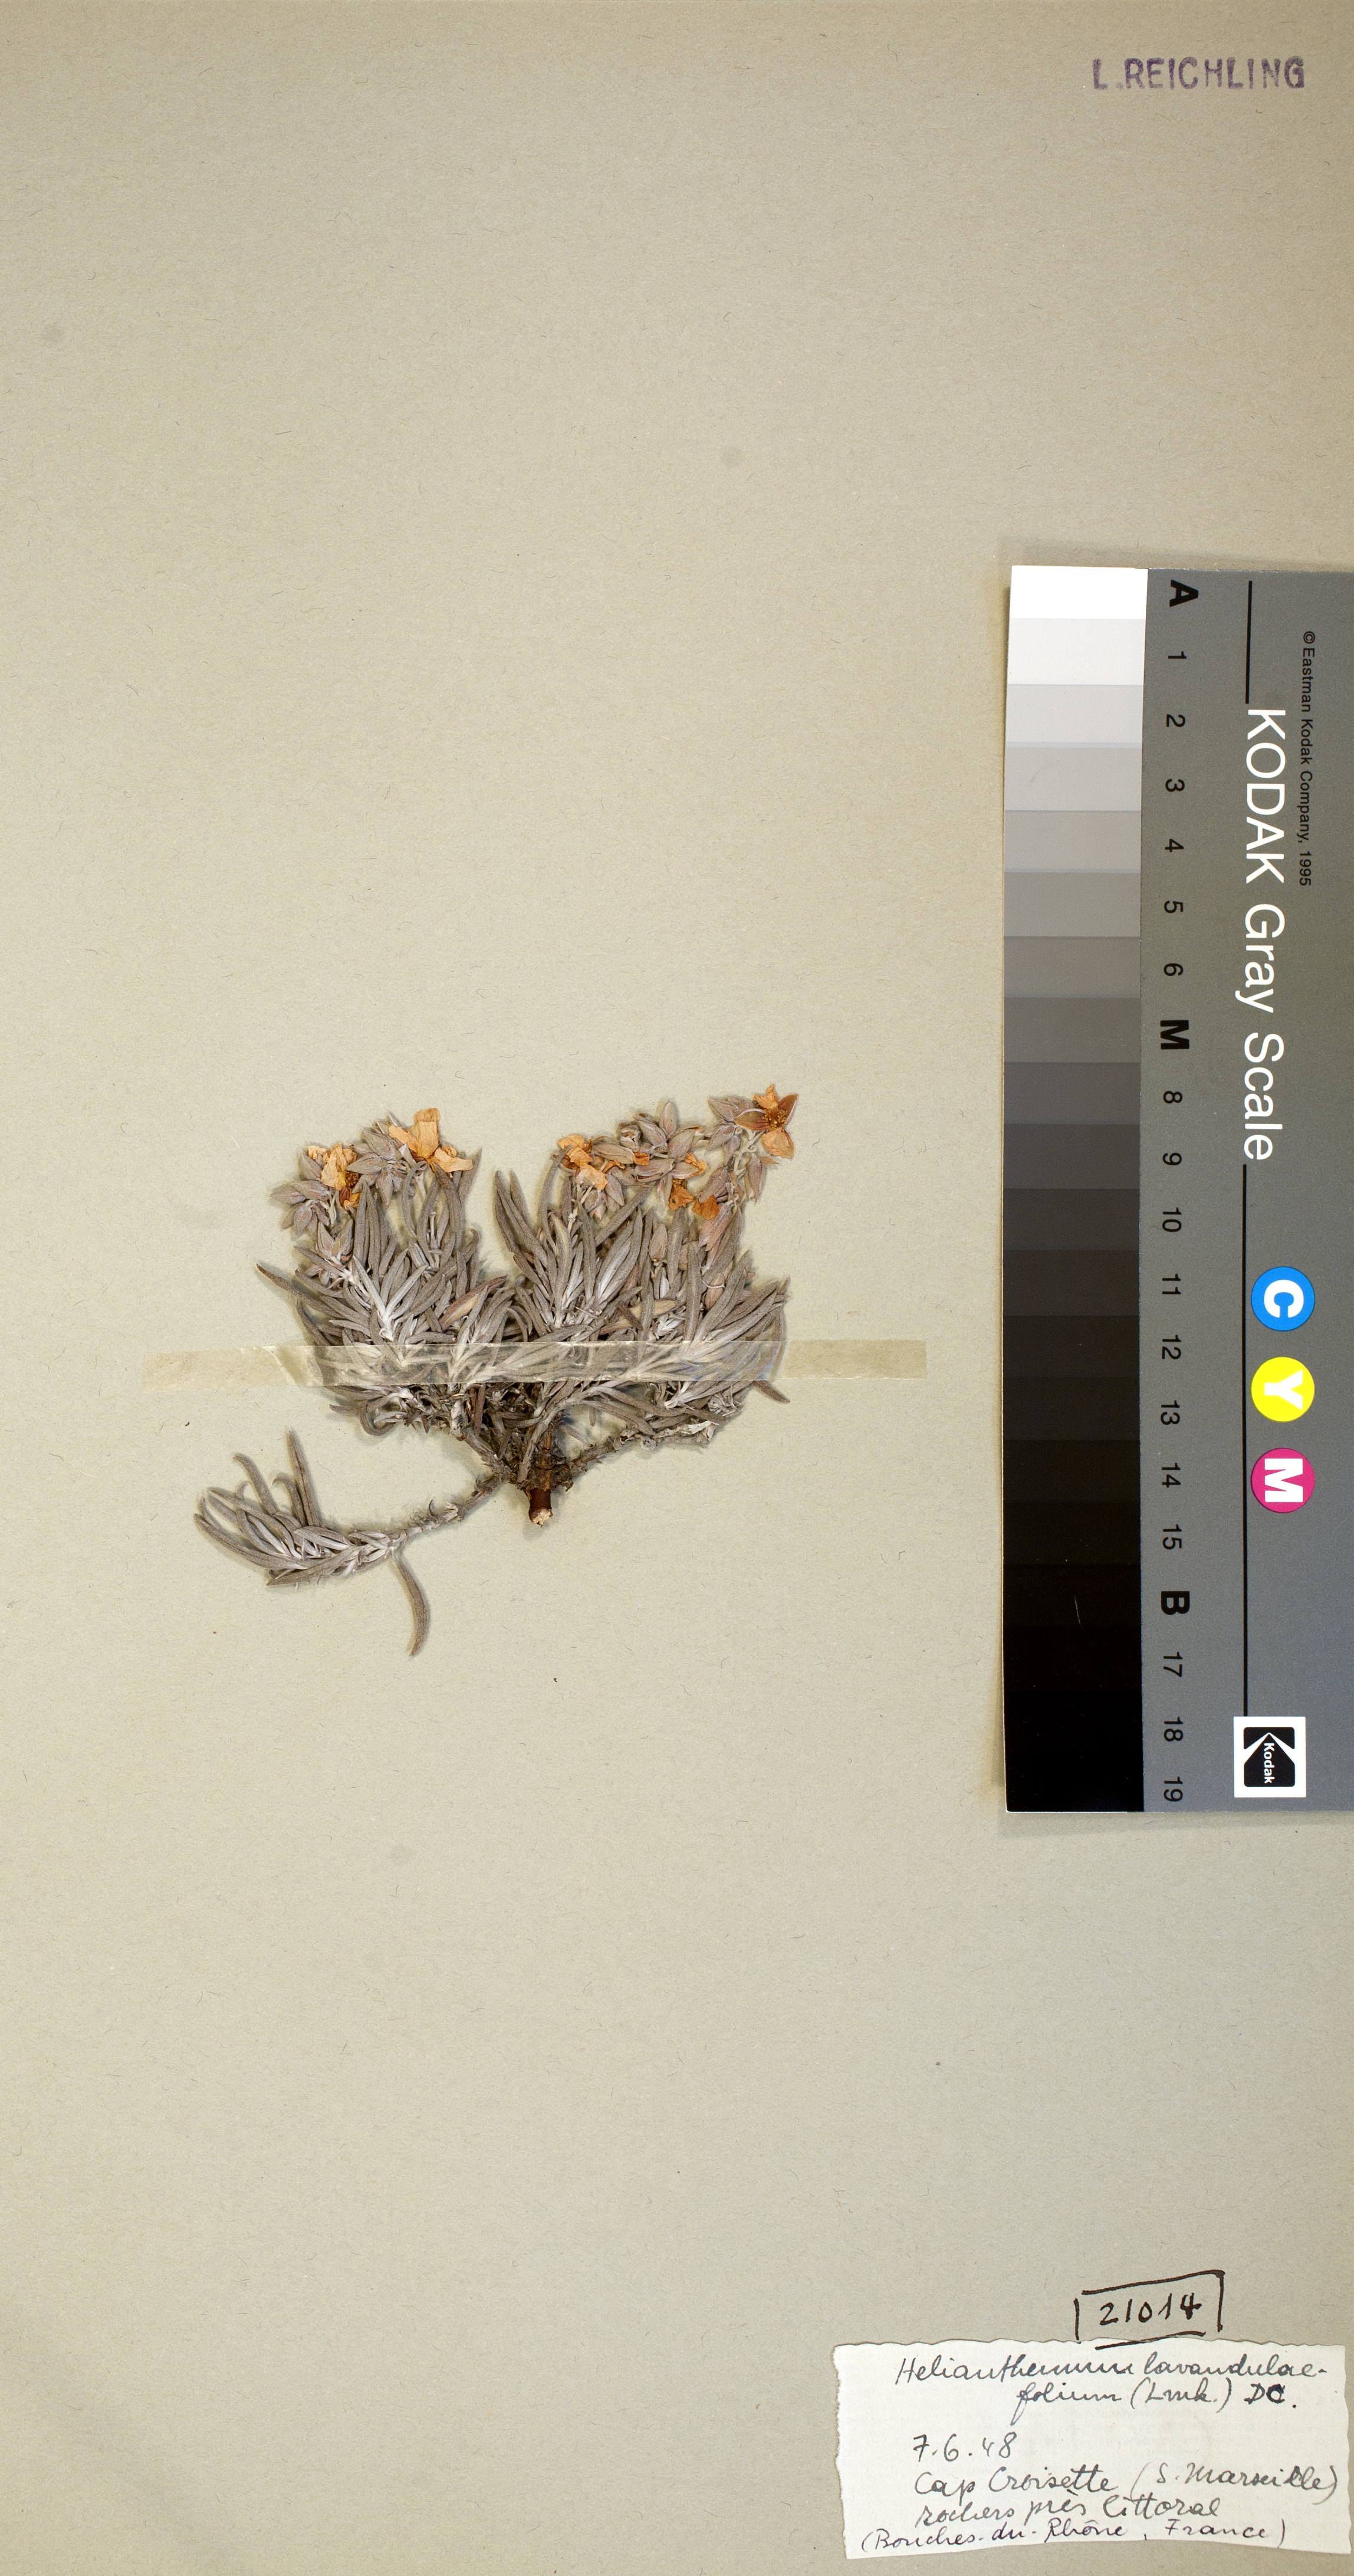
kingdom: Plantae
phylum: Tracheophyta
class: Magnoliopsida
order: Malvales
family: Cistaceae
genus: Helianthemum
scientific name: Helianthemum syriacum
